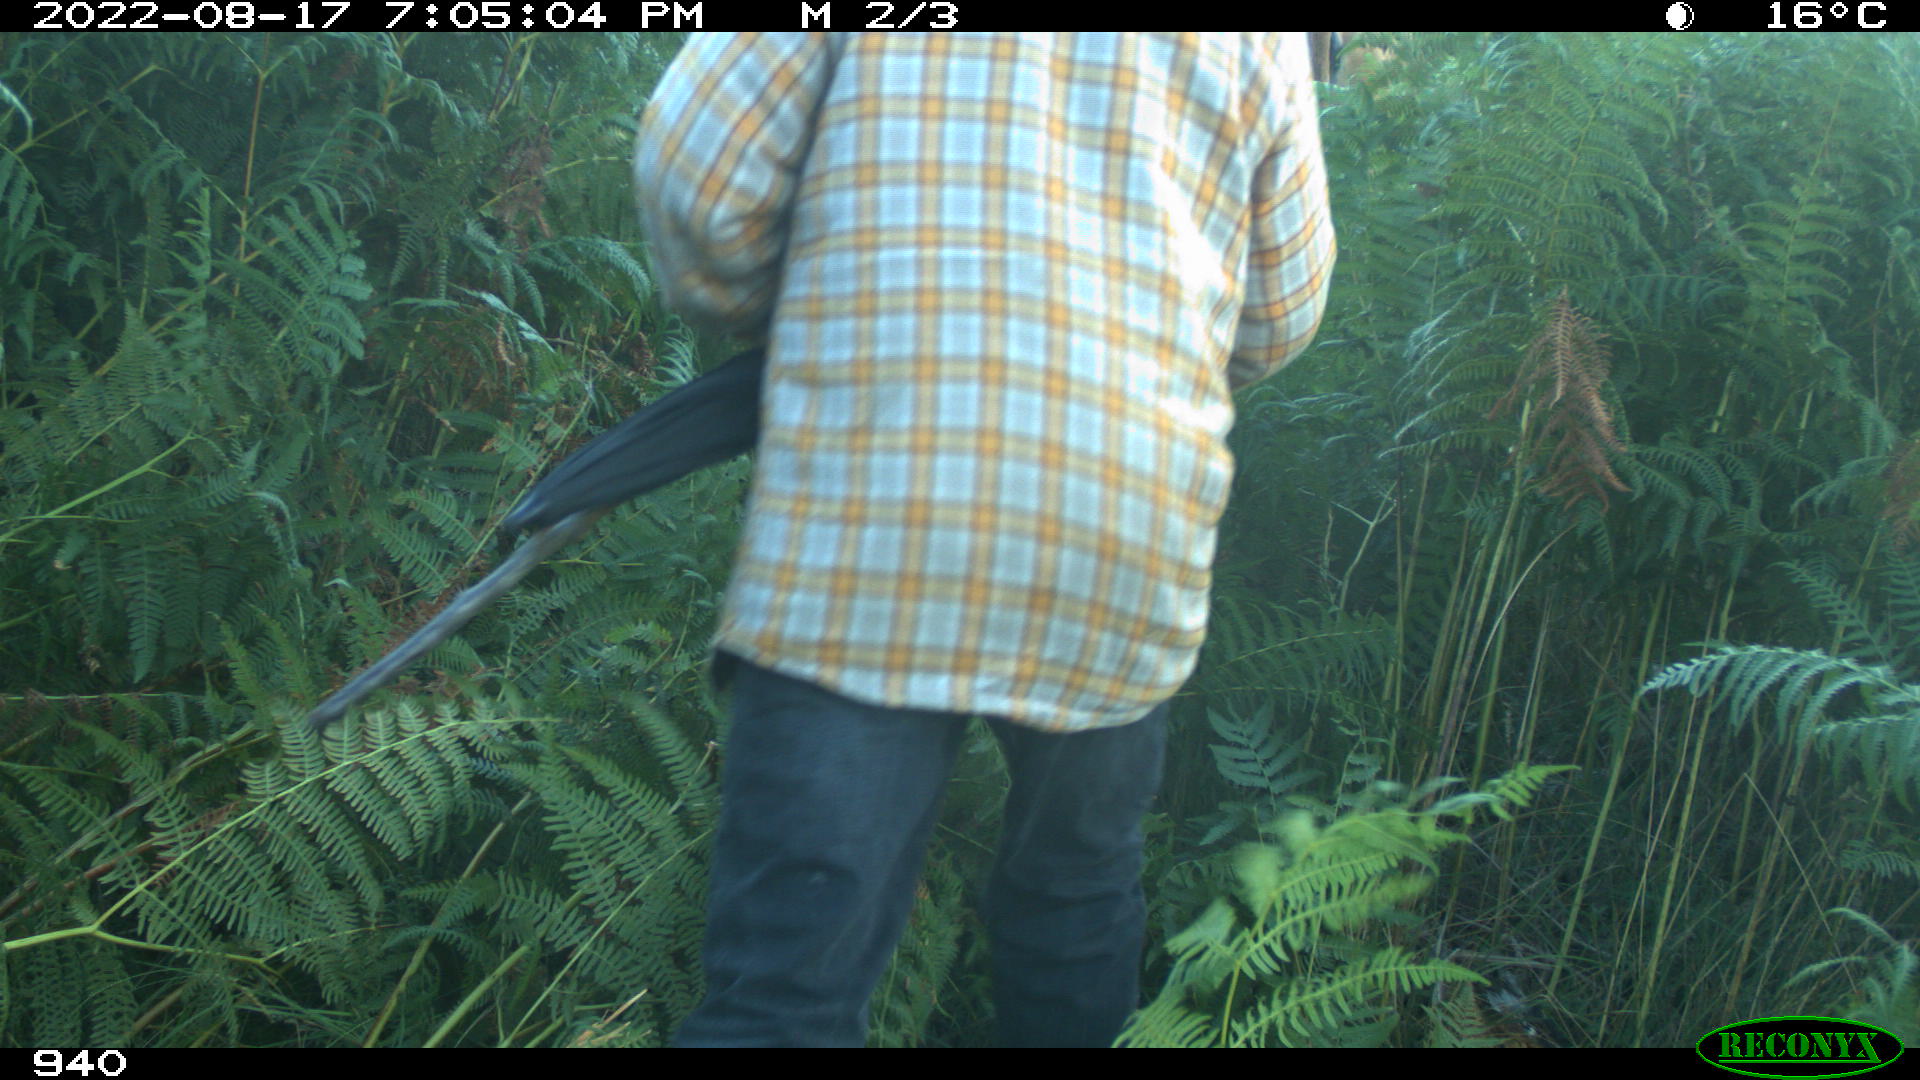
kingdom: Animalia
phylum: Chordata
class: Mammalia
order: Artiodactyla
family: Bovidae
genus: Bos
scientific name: Bos taurus
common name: Domesticated cattle
